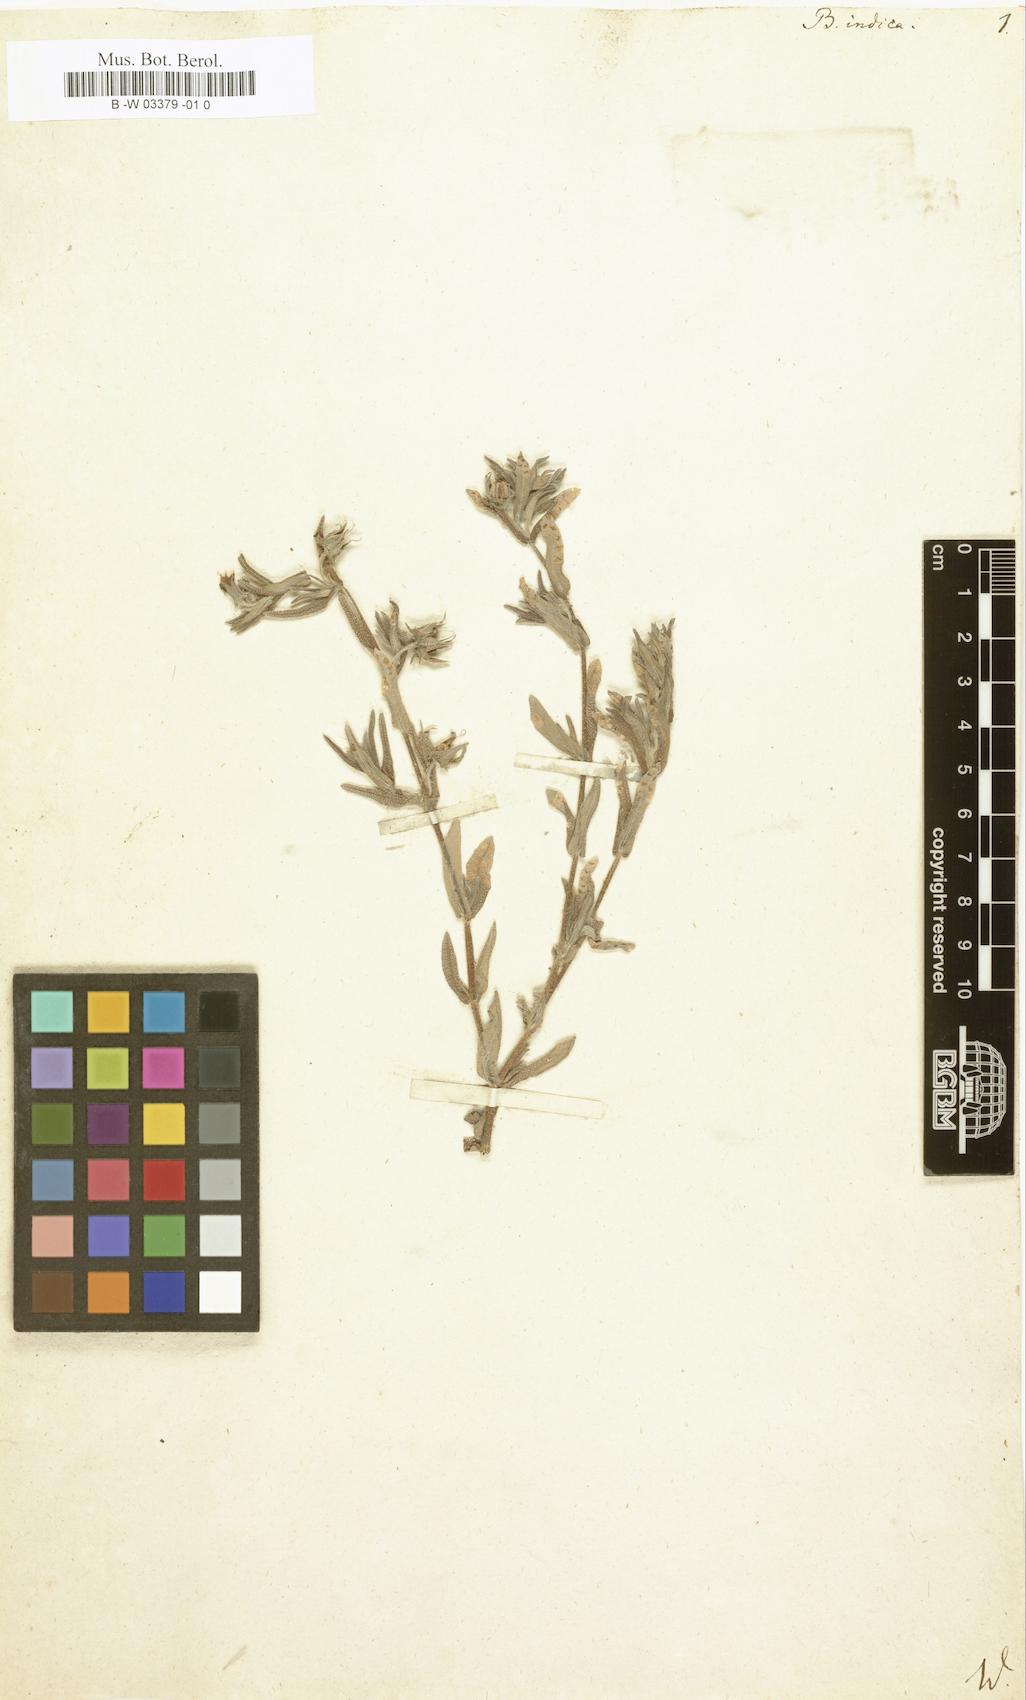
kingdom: Plantae
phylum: Tracheophyta
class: Magnoliopsida
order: Boraginales
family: Boraginaceae
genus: Trichodesma
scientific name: Trichodesma indicum
